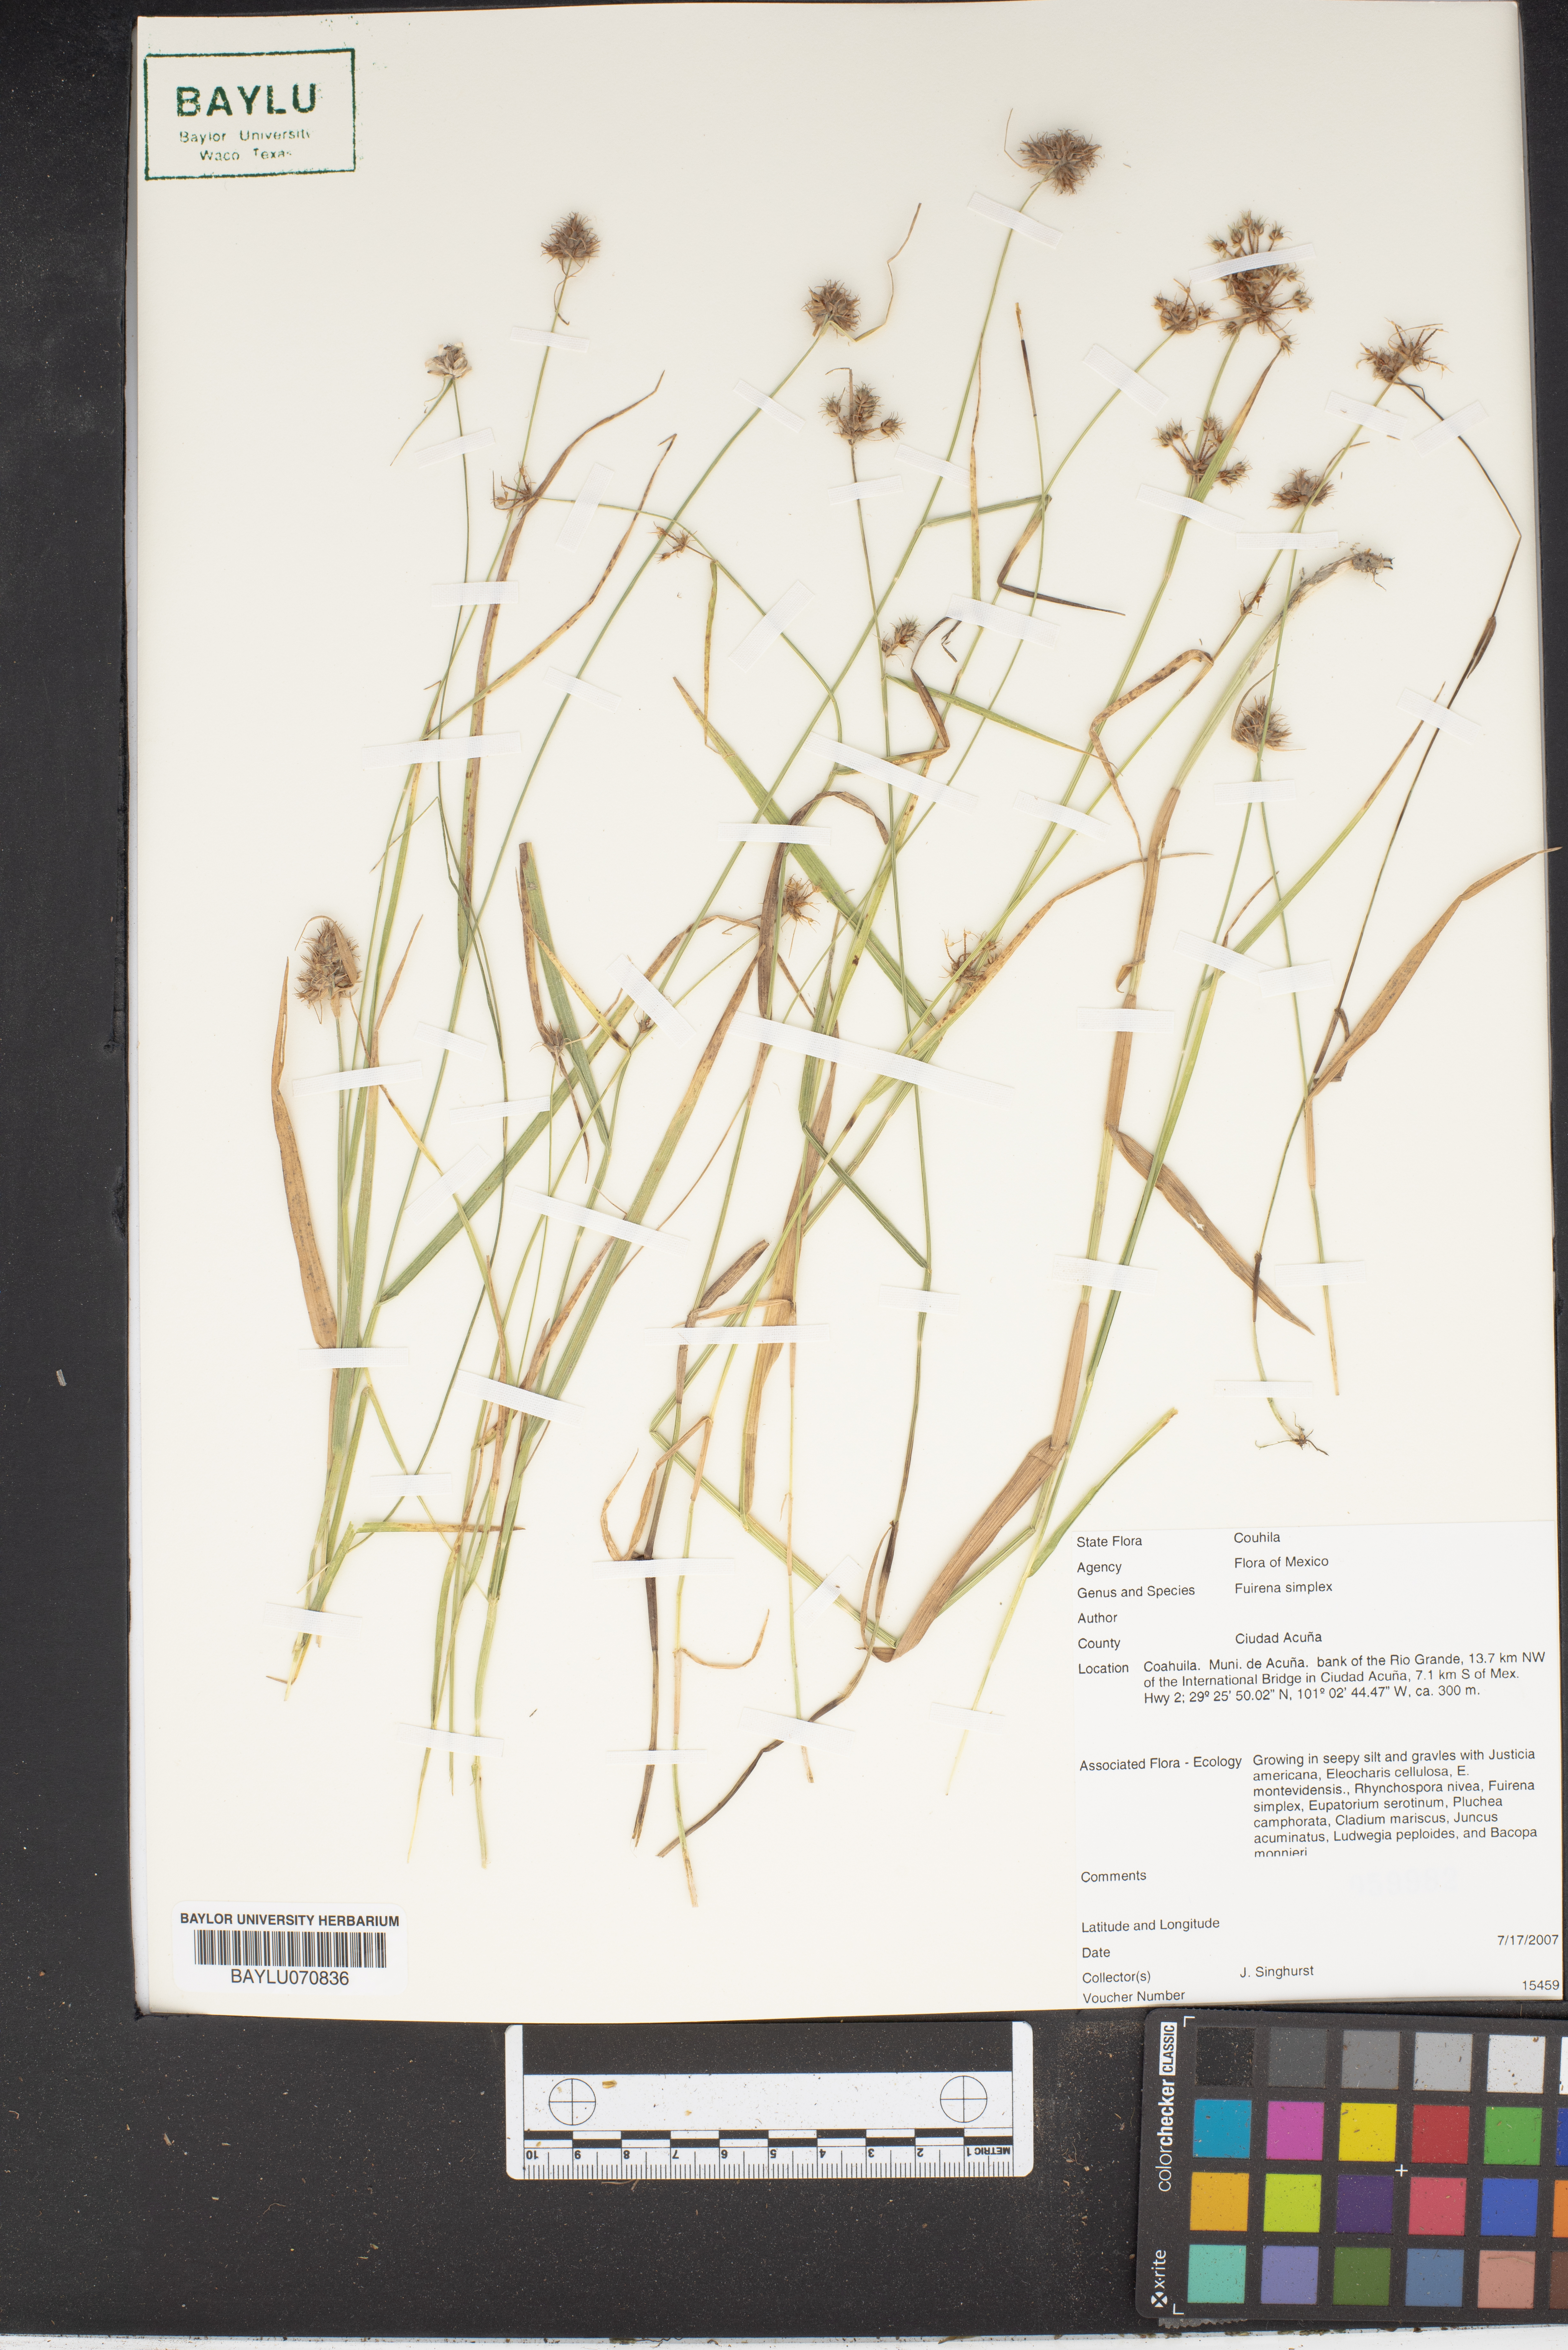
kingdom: Plantae
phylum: Tracheophyta
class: Liliopsida
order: Poales
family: Cyperaceae
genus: Fuirena
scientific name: Fuirena simplex
